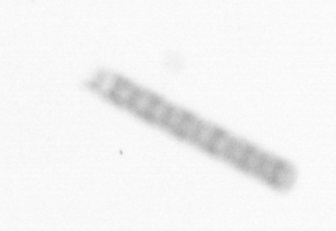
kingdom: Chromista
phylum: Ochrophyta
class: Bacillariophyceae
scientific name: Bacillariophyceae
